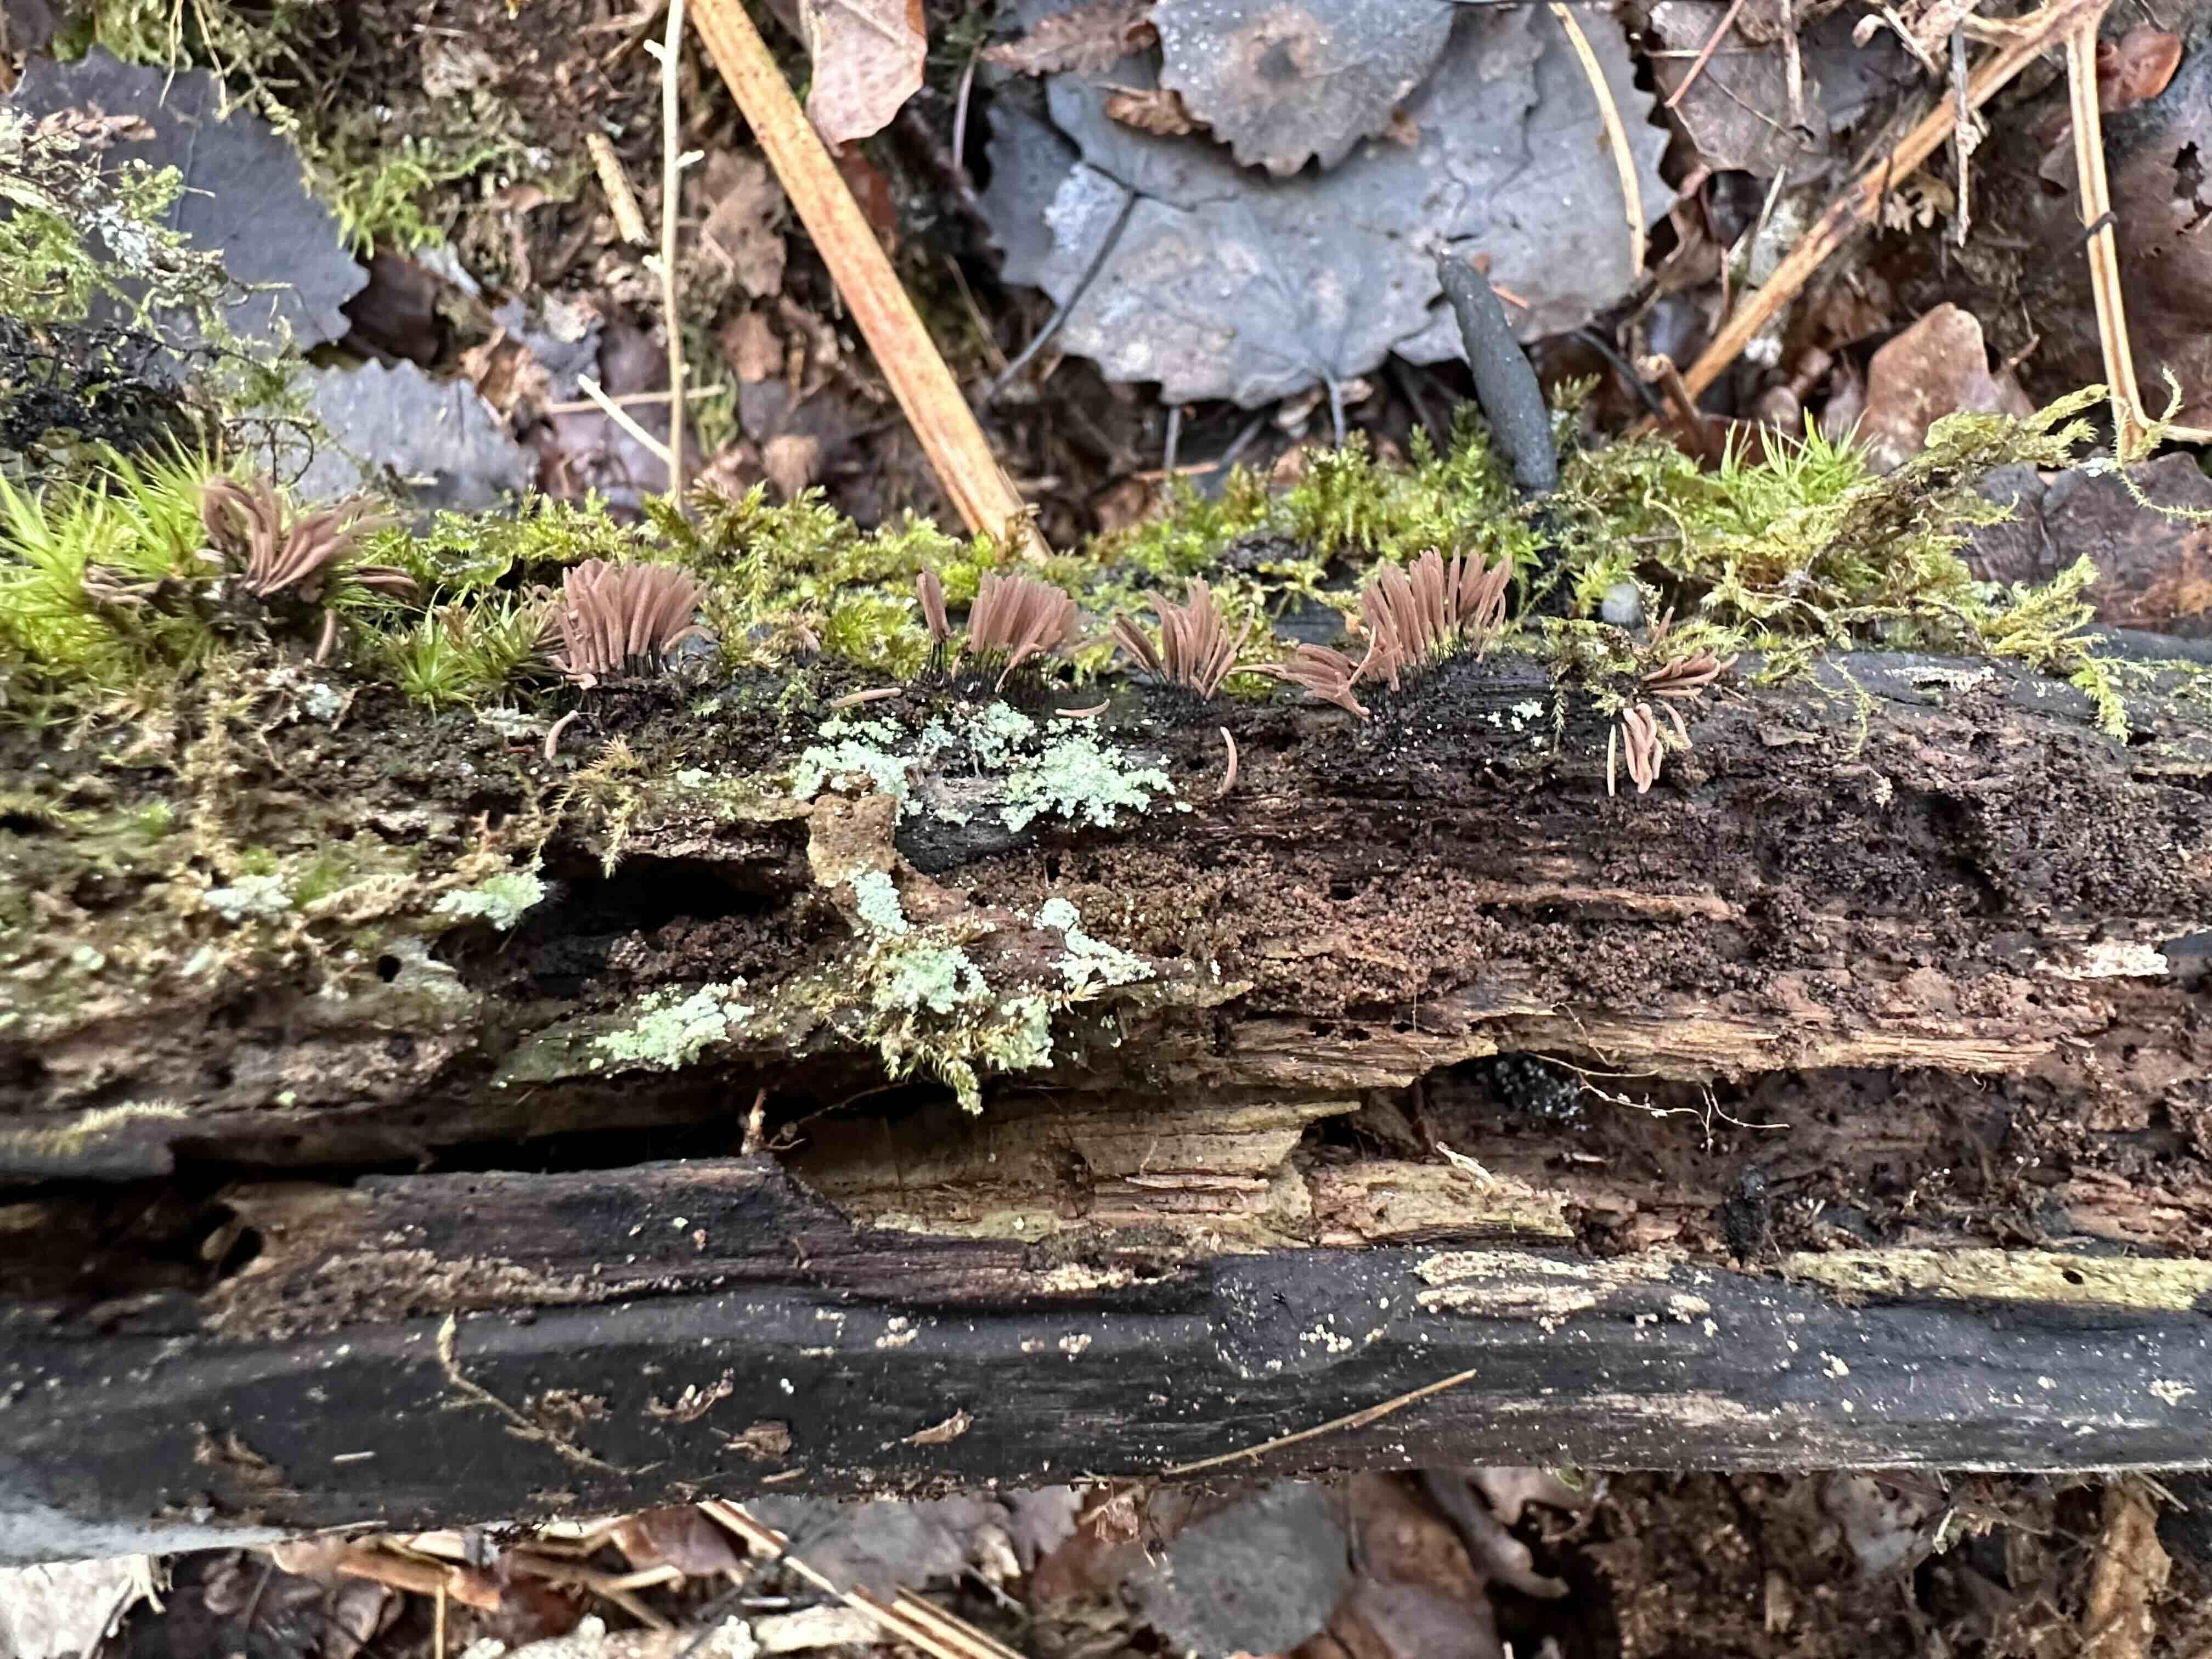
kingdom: Protozoa
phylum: Mycetozoa
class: Myxomycetes
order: Stemonitidales
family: Stemonitidaceae
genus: Stemonitis
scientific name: Stemonitis axifera
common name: rødbrun støvkølle
